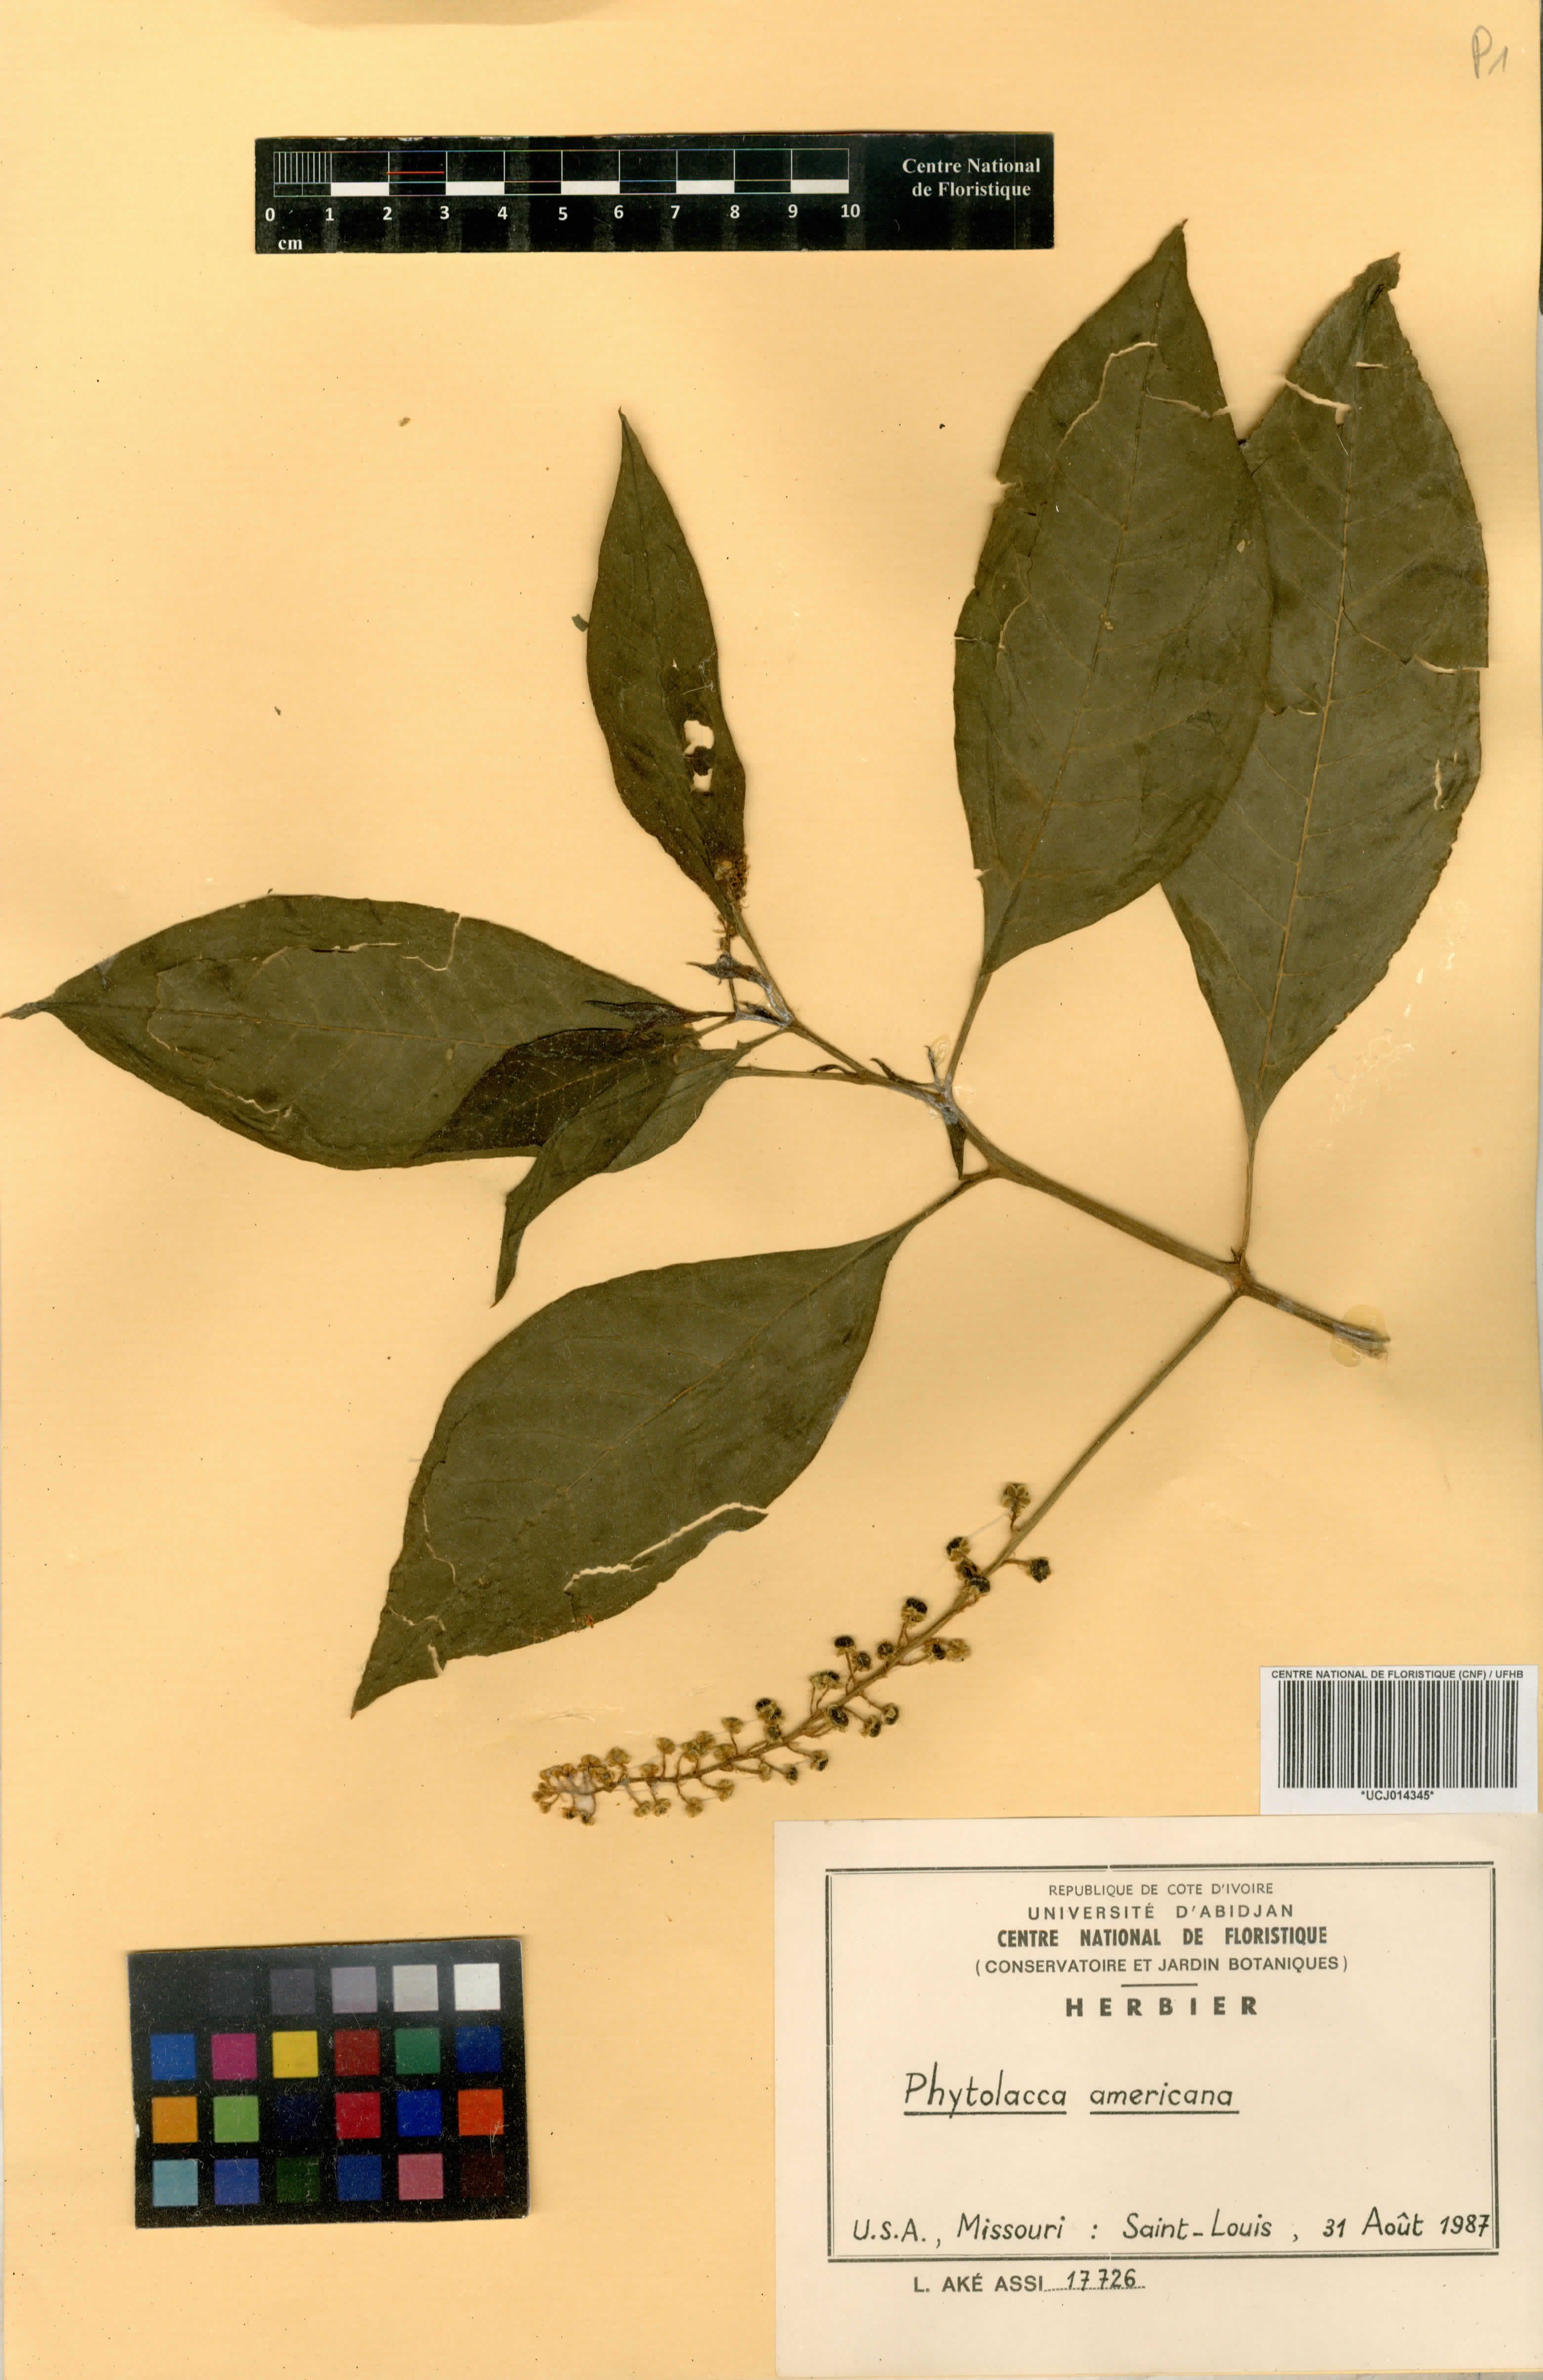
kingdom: Plantae
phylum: Tracheophyta
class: Magnoliopsida
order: Caryophyllales
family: Phytolaccaceae
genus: Phytolacca
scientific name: Phytolacca americana
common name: American pokeweed
